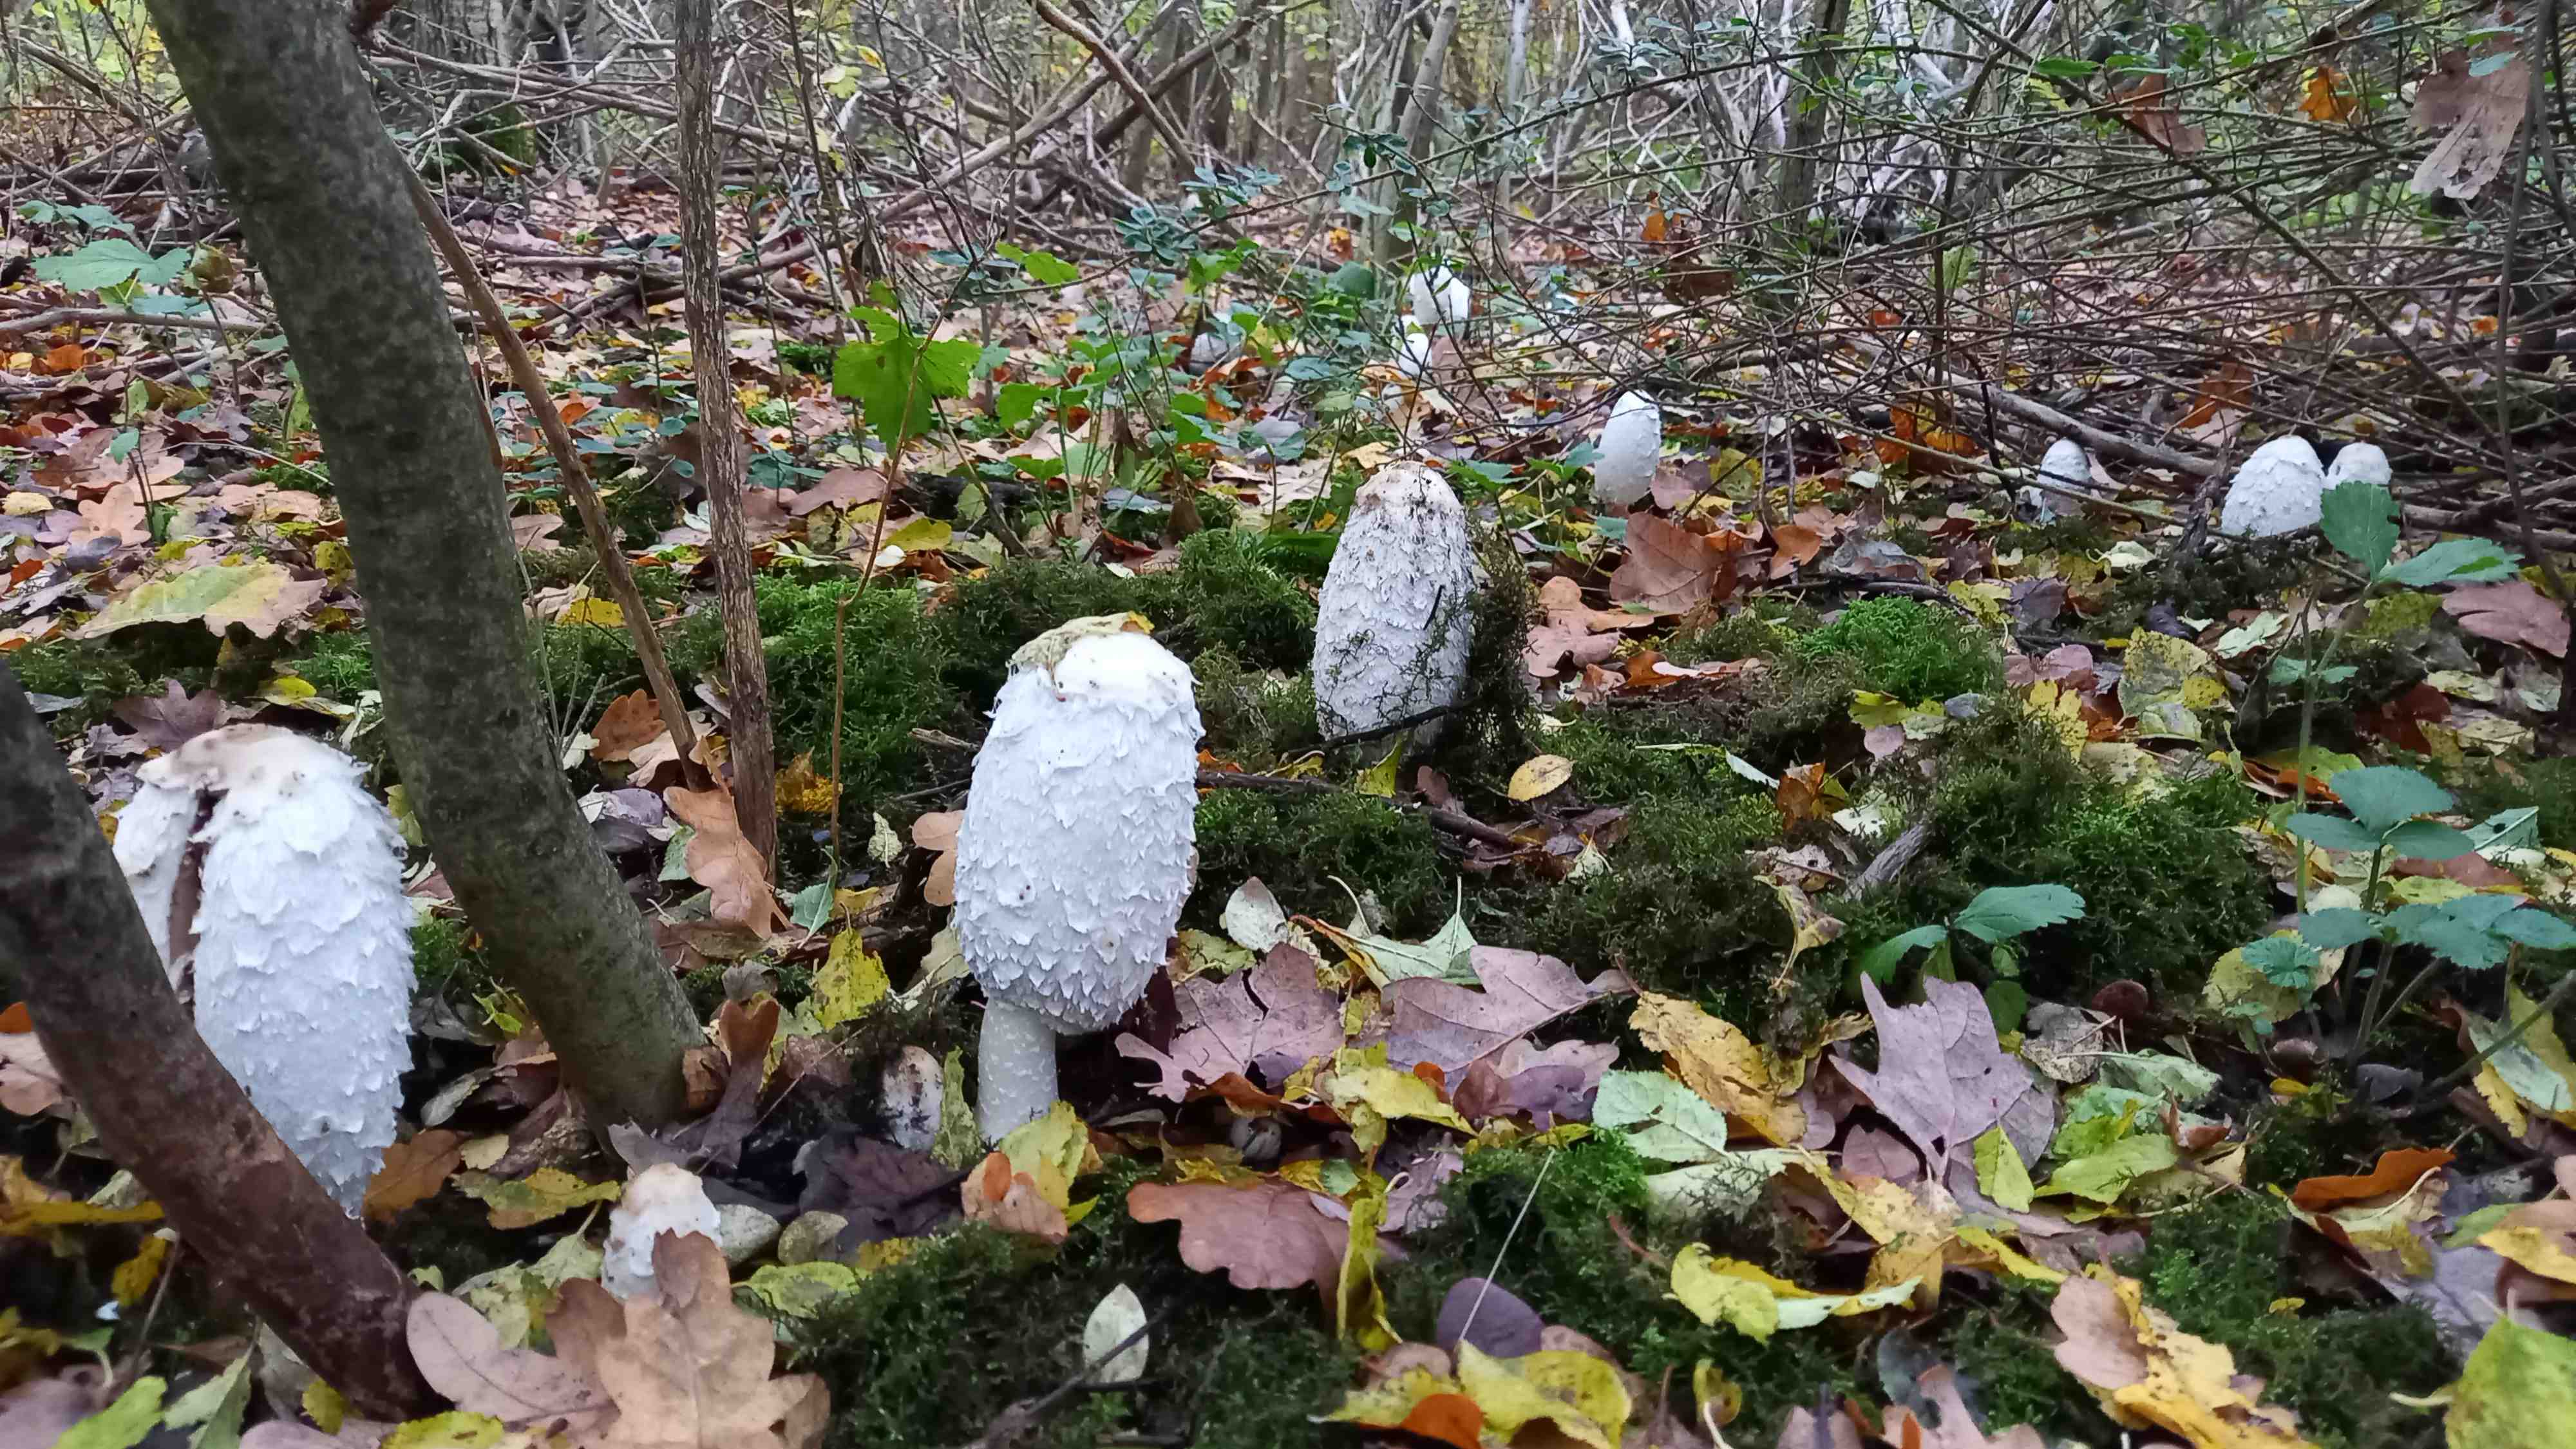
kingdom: Fungi
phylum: Basidiomycota
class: Agaricomycetes
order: Agaricales
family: Agaricaceae
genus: Coprinus
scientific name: Coprinus comatus
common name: stor parykhat
